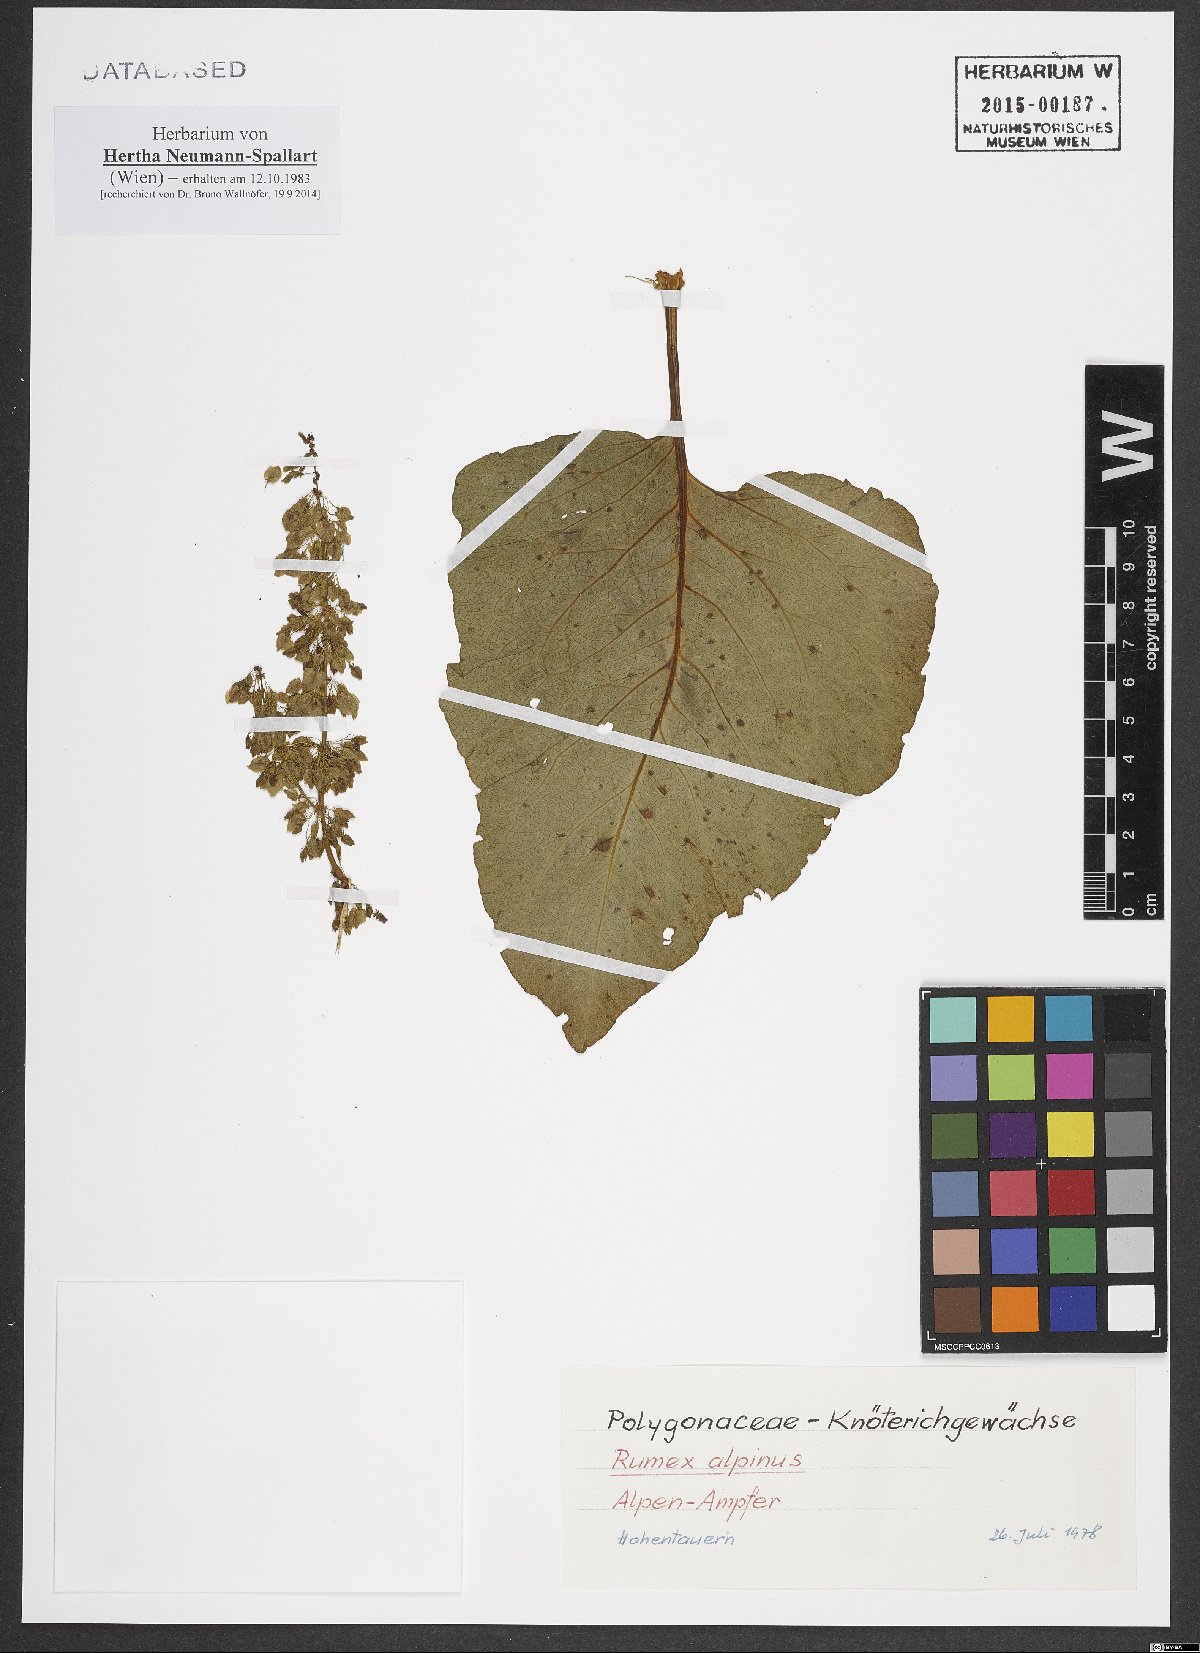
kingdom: Plantae
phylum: Tracheophyta
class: Magnoliopsida
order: Caryophyllales
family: Polygonaceae
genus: Rumex
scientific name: Rumex alpinus
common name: Alpine dock
